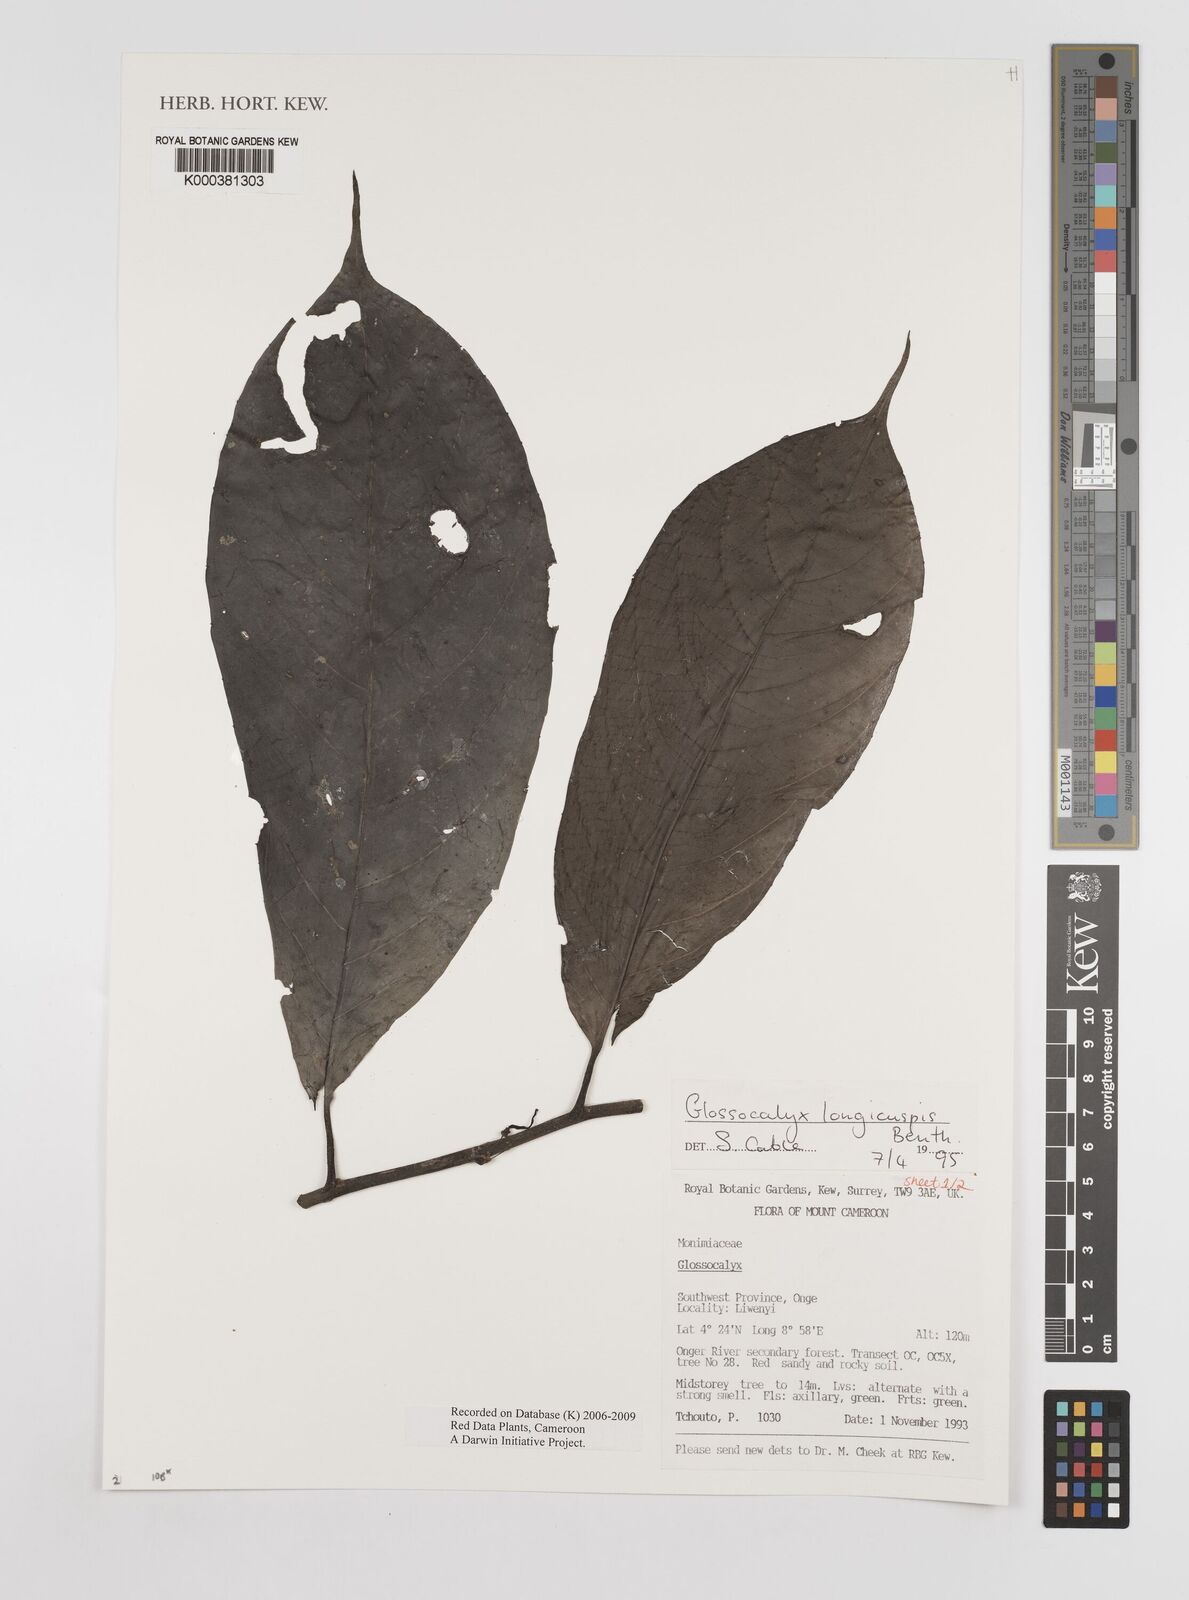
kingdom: Plantae
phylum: Tracheophyta
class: Magnoliopsida
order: Laurales
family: Siparunaceae
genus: Glossocalyx
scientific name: Glossocalyx longicuspis
